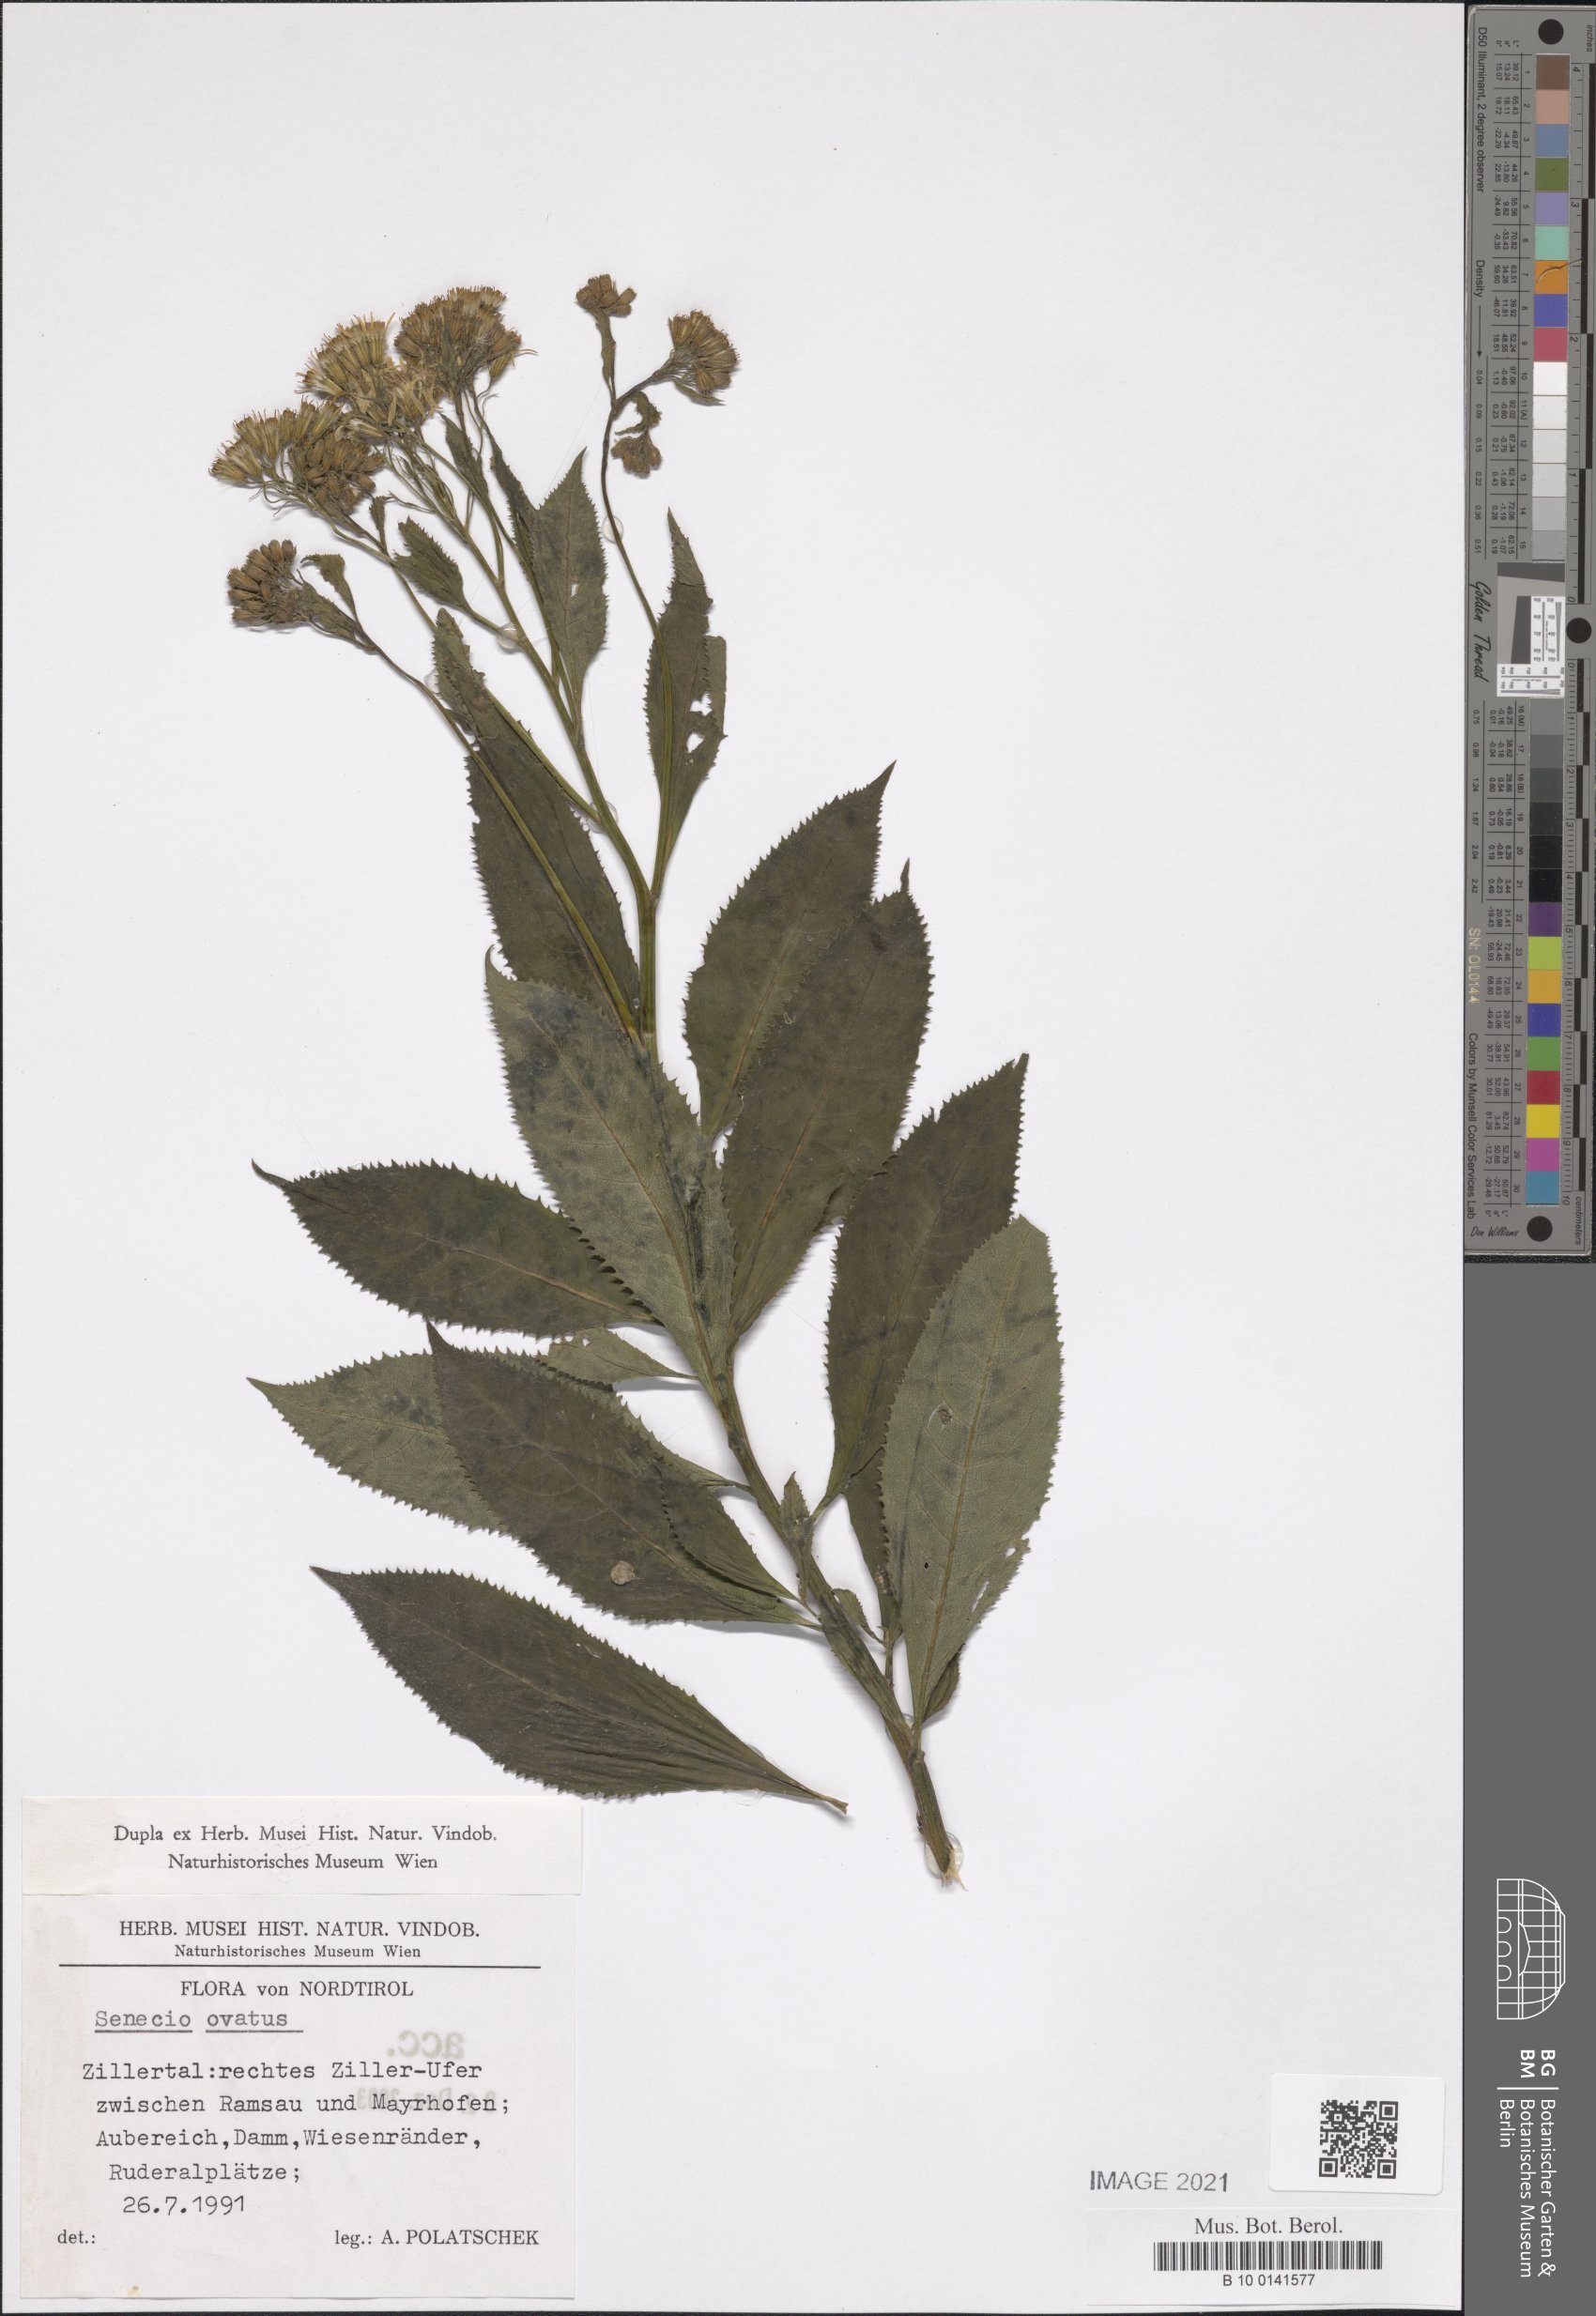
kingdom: Plantae
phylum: Tracheophyta
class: Magnoliopsida
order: Asterales
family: Asteraceae
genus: Senecio
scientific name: Senecio ovatus
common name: Wood ragwort
